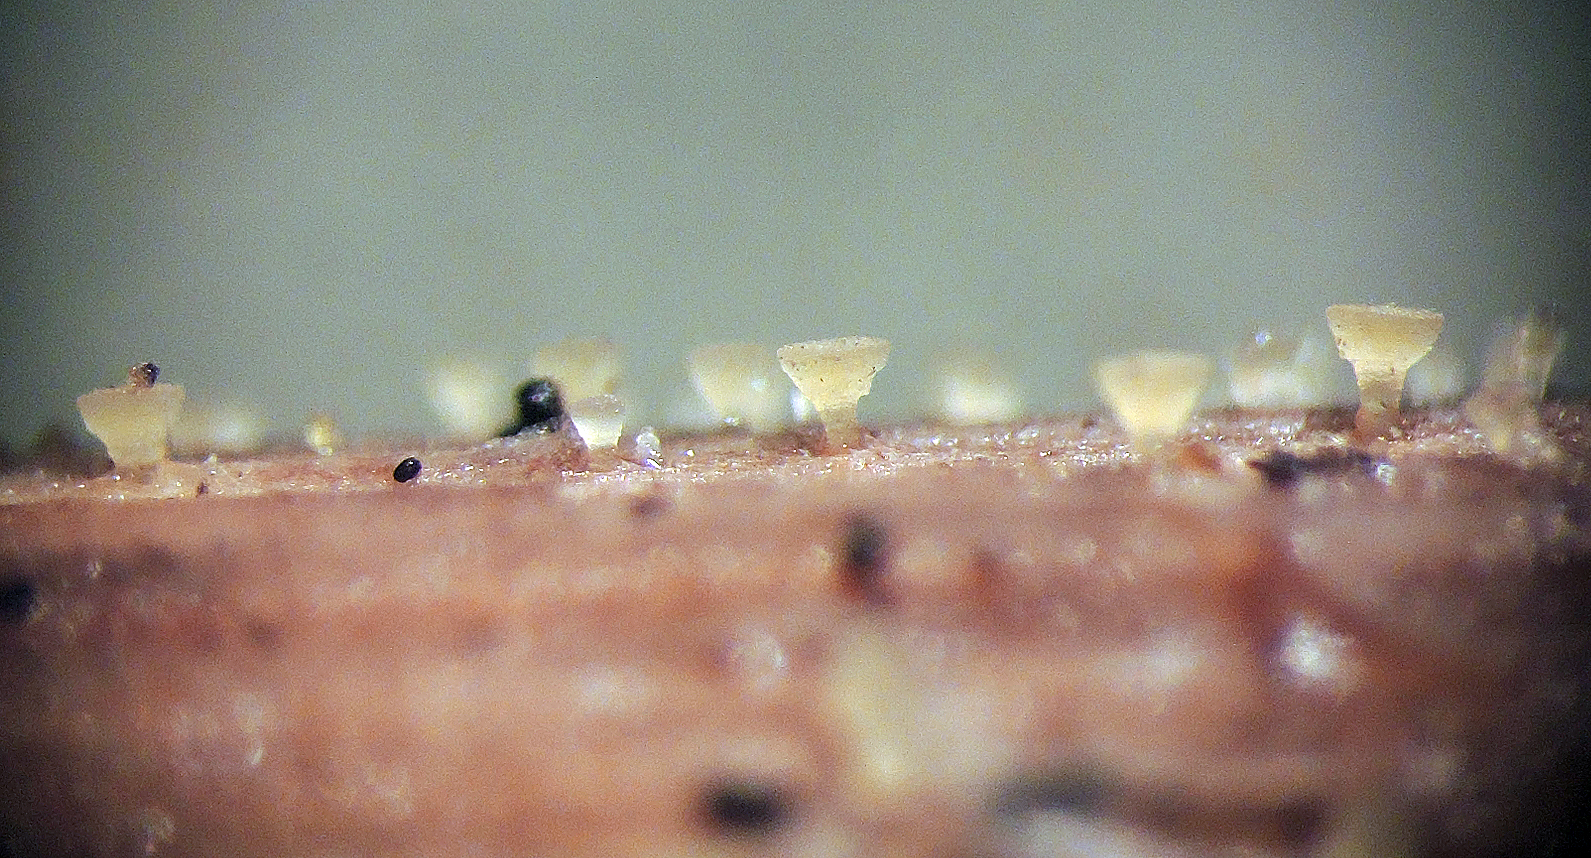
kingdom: Fungi
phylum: Ascomycota
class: Leotiomycetes
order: Helotiales
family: Pezizellaceae
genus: Allophylaria
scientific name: Allophylaria byssacea
